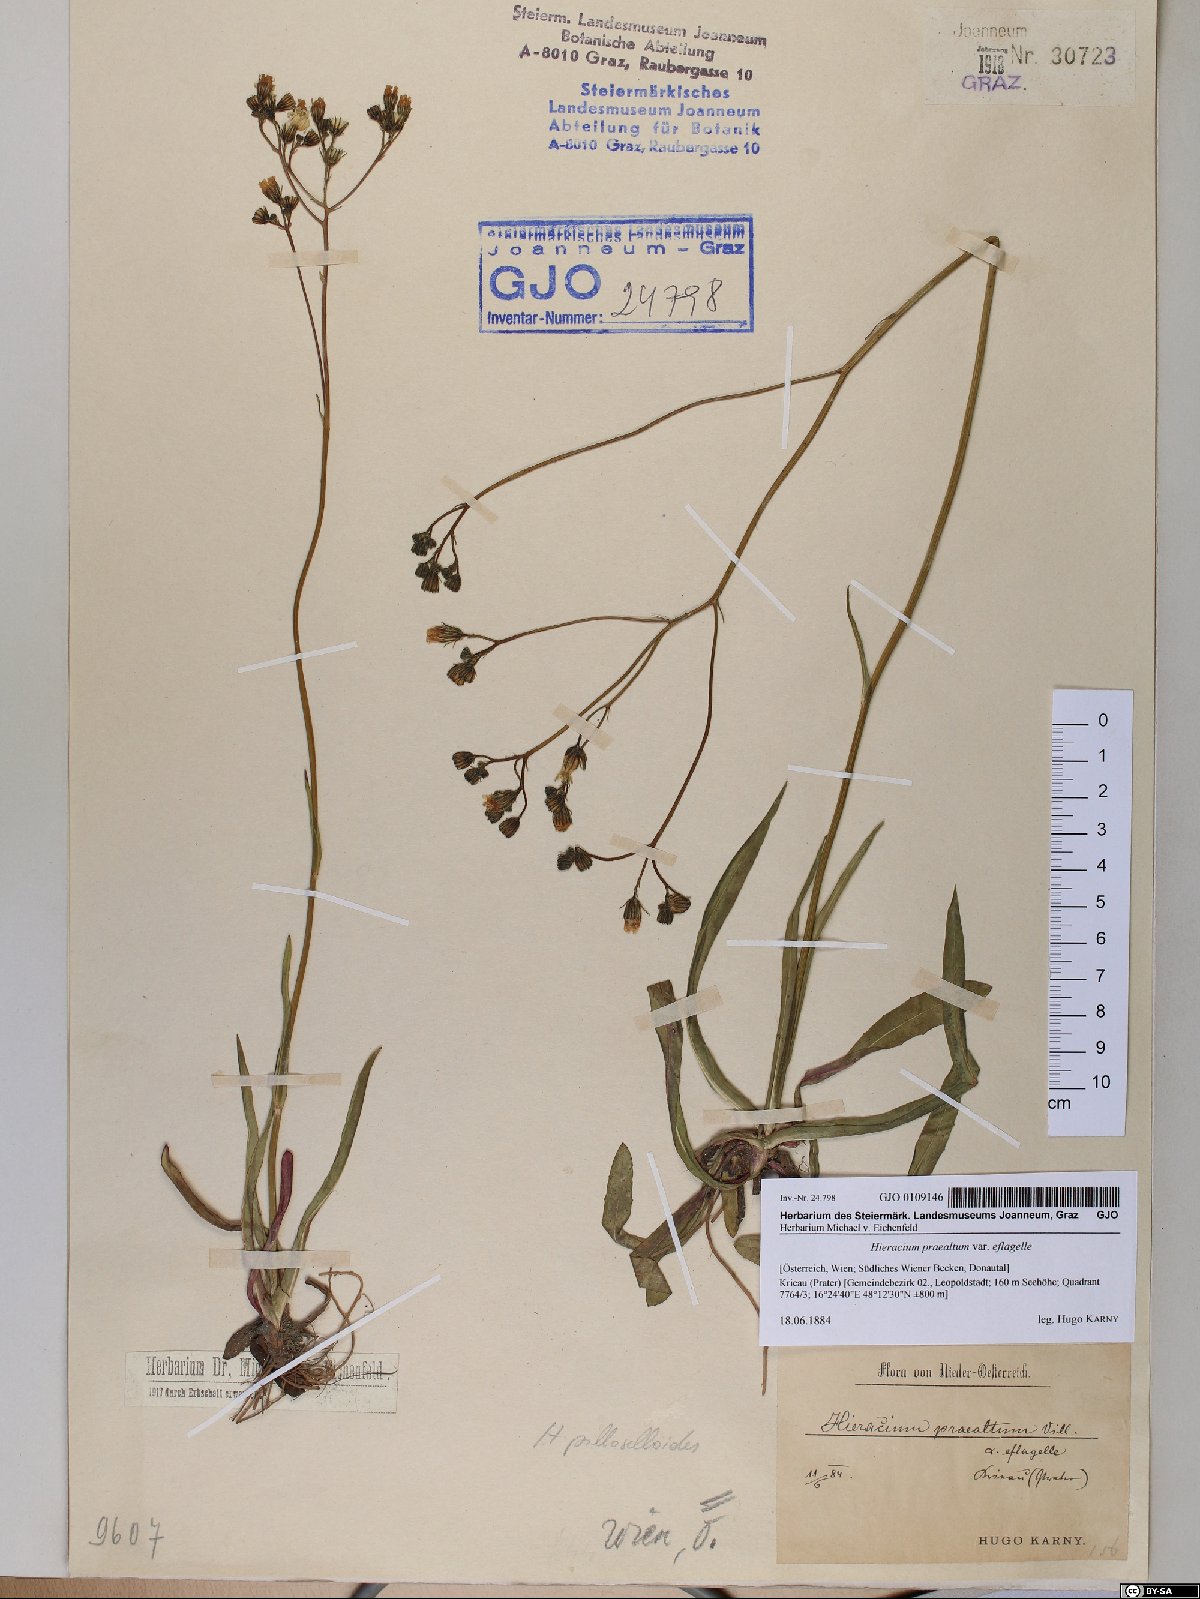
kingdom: Plantae
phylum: Tracheophyta
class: Magnoliopsida
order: Asterales
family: Asteraceae
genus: Hieracium
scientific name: Hieracium praealtum
